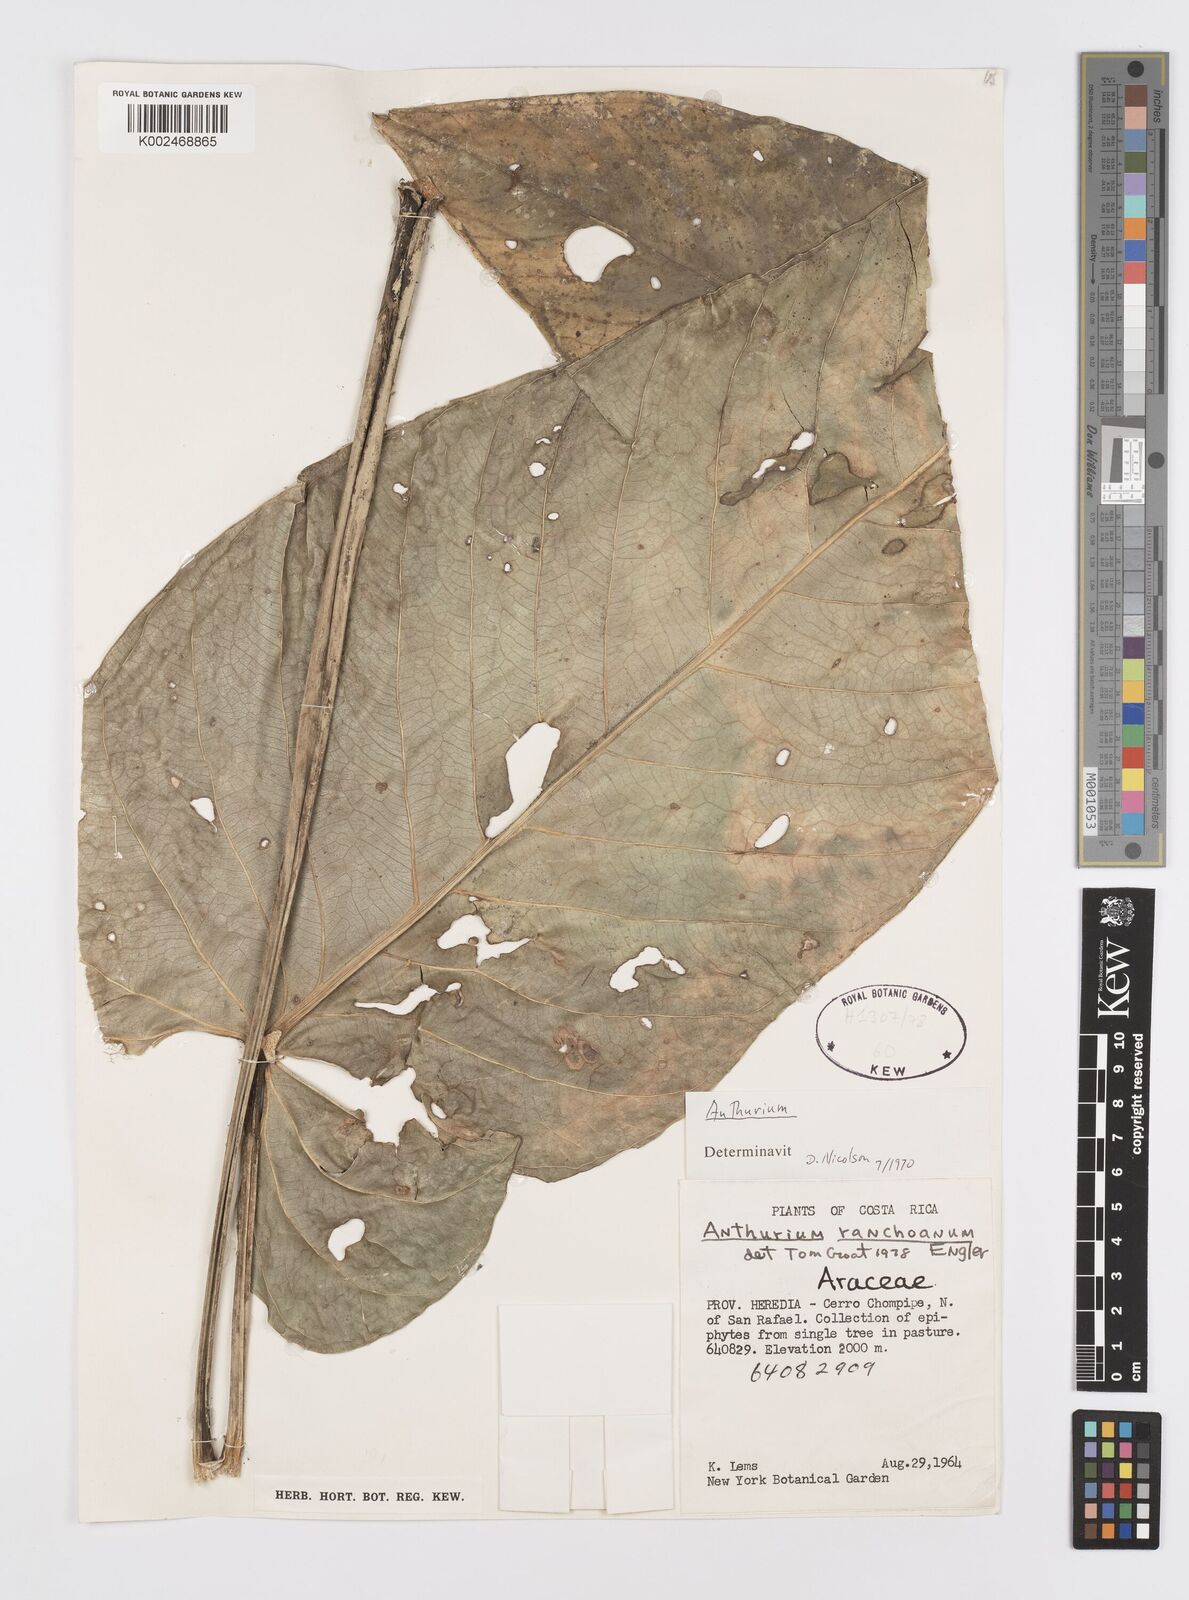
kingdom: Plantae
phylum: Tracheophyta
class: Liliopsida
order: Alismatales
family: Araceae
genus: Anthurium
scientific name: Anthurium ranchoanum
